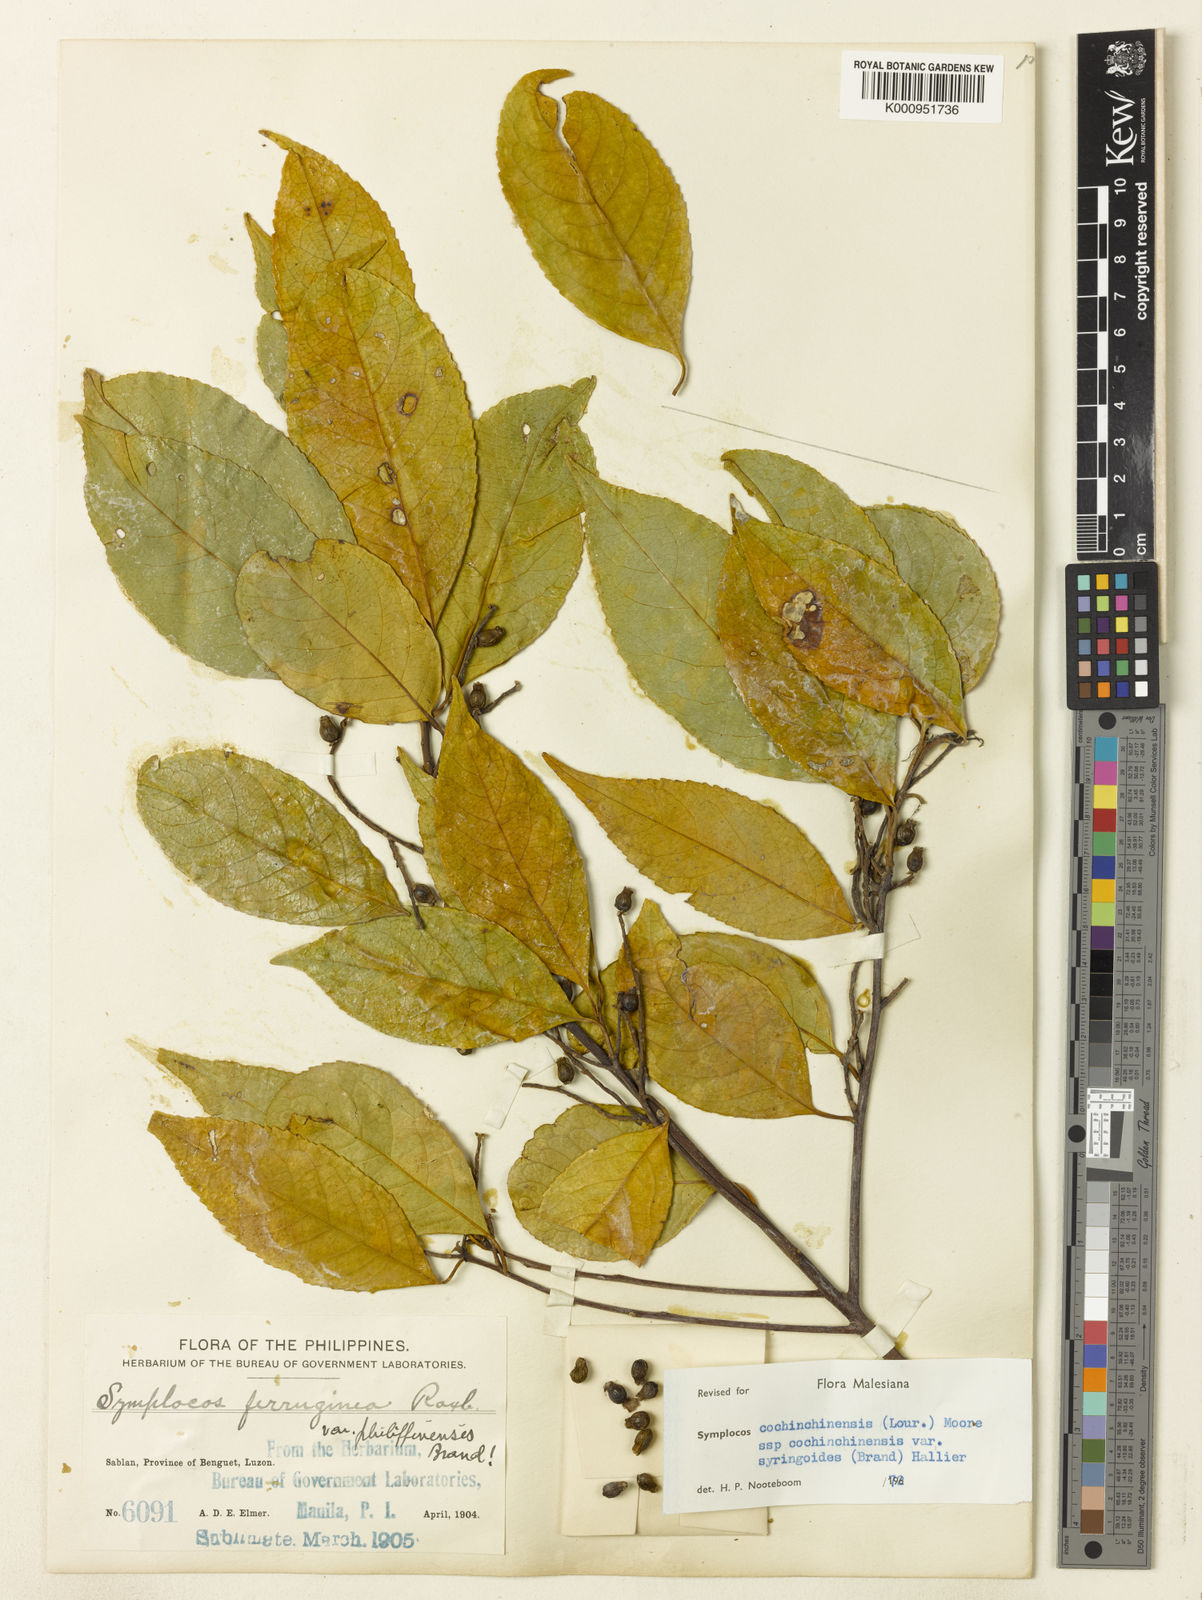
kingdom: Plantae
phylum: Tracheophyta
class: Magnoliopsida
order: Ericales
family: Symplocaceae
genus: Symplocos
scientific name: Symplocos cochinchinensis
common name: Buff hazelwood
